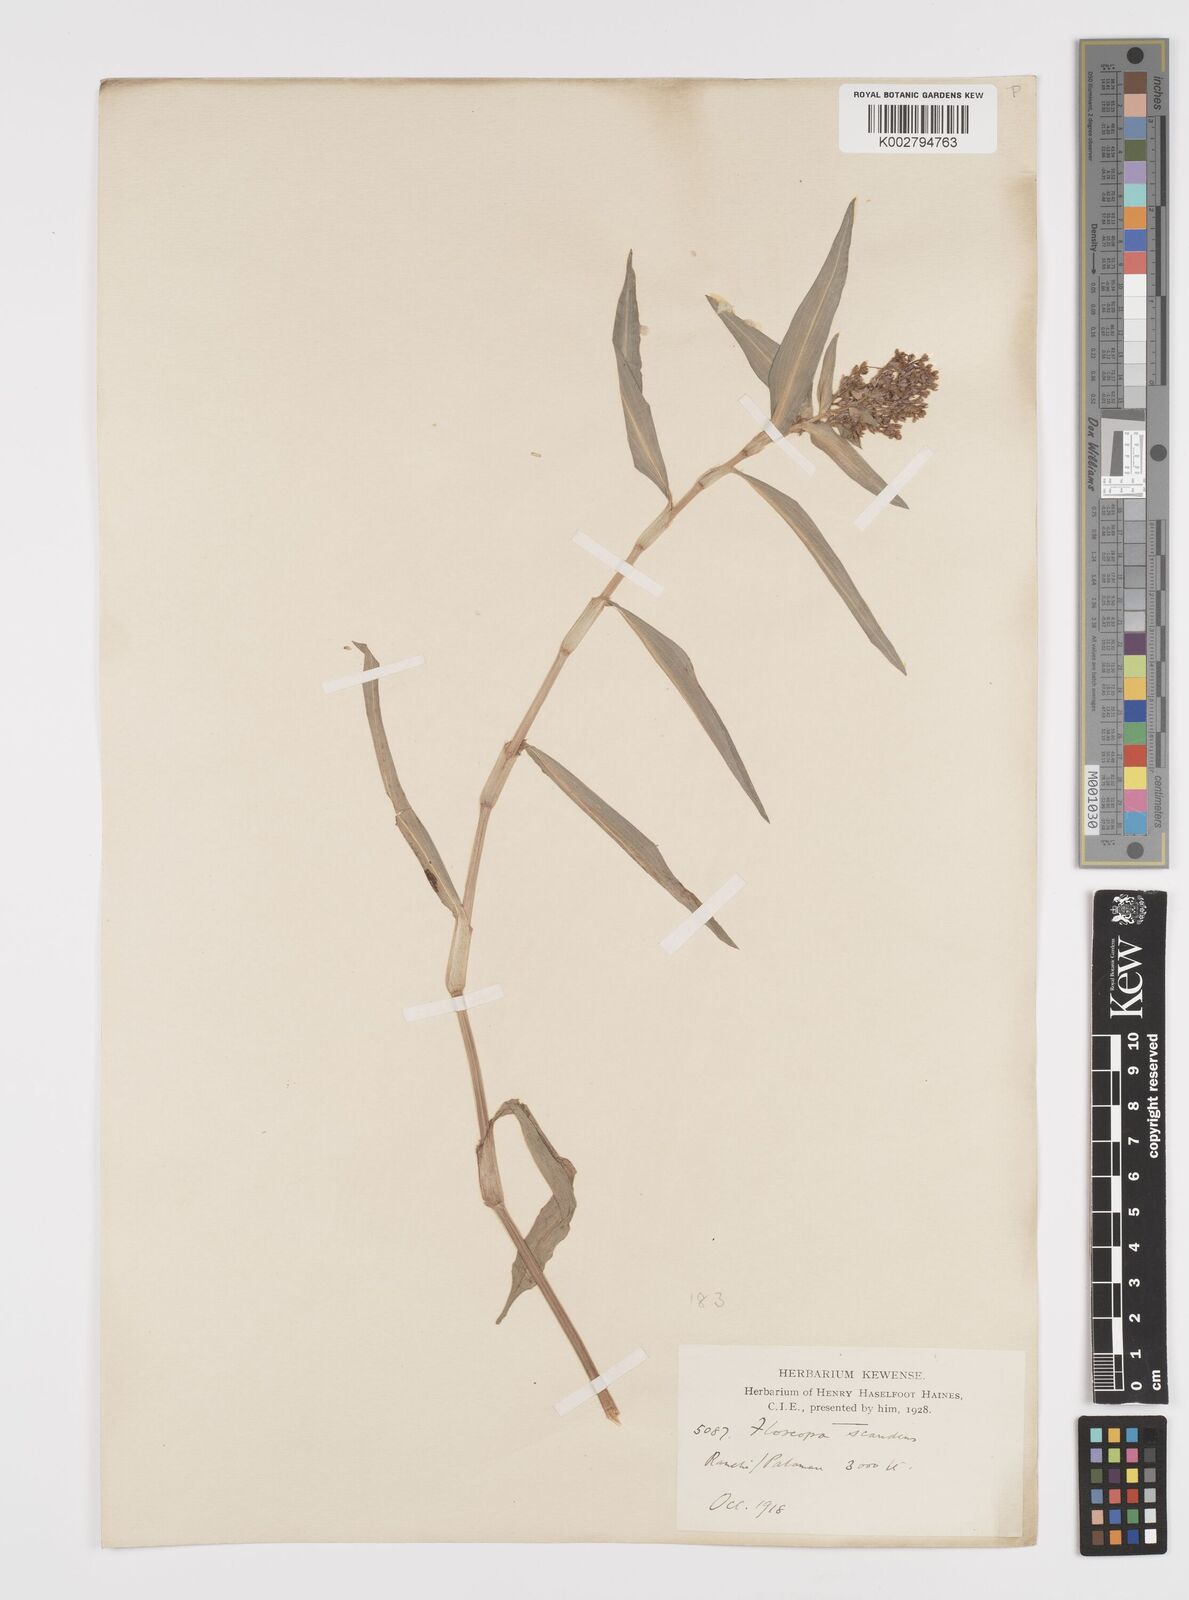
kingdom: Plantae
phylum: Tracheophyta
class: Liliopsida
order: Commelinales
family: Commelinaceae
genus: Floscopa
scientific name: Floscopa scandens
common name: Climbing flower cup
